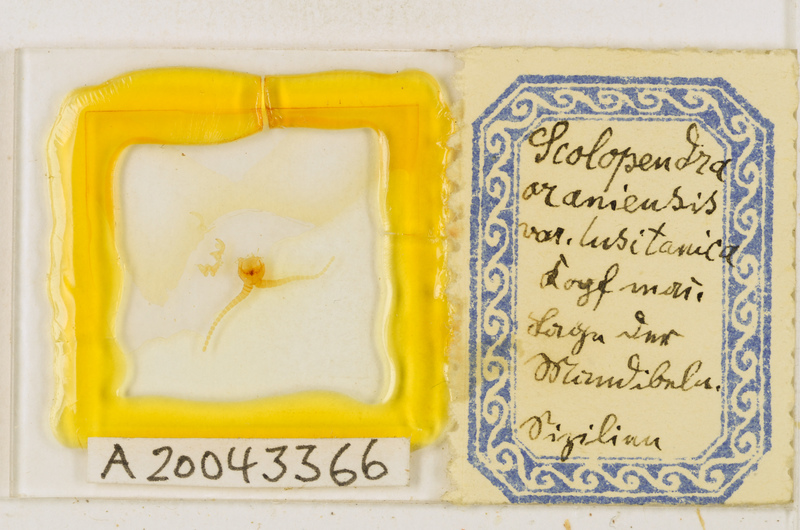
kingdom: Animalia
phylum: Arthropoda
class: Chilopoda
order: Scolopendromorpha
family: Scolopendridae
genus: Scolopendra
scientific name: Scolopendra oraniensis
